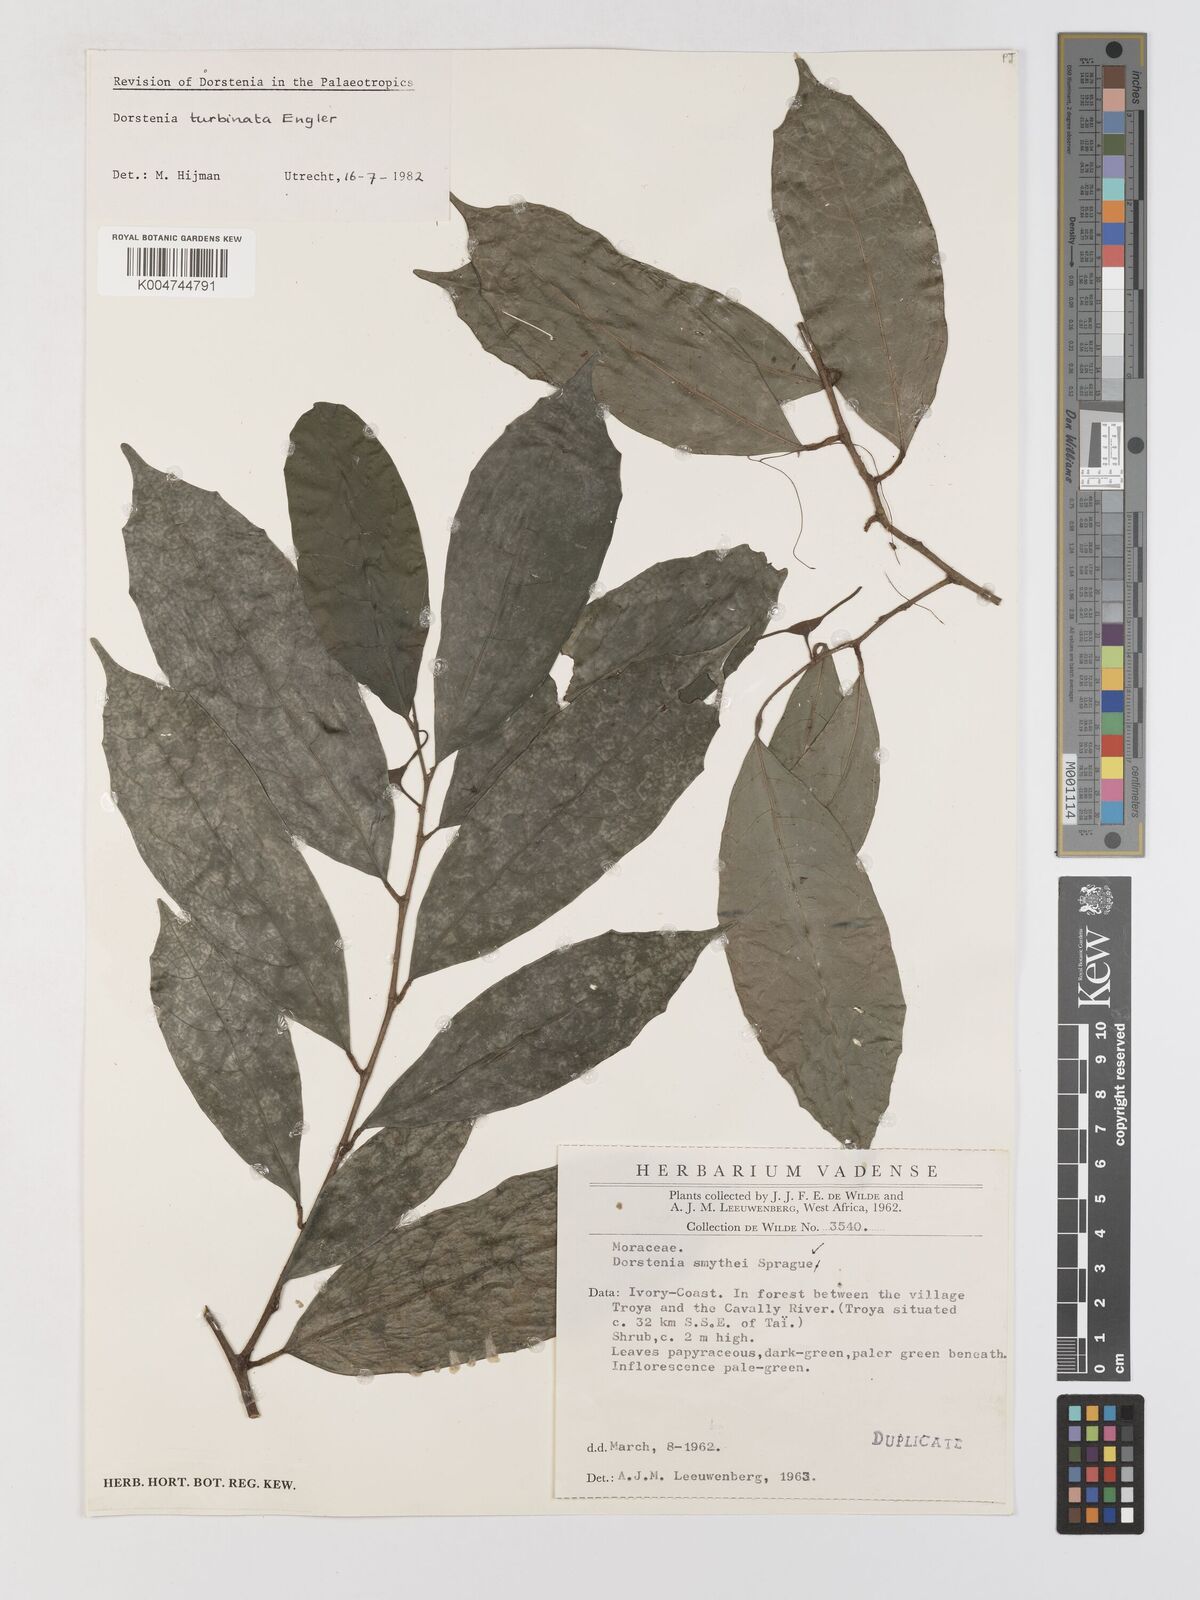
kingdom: Plantae
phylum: Tracheophyta
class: Magnoliopsida
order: Rosales
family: Moraceae
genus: Hijmania
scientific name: Hijmania turbinata
